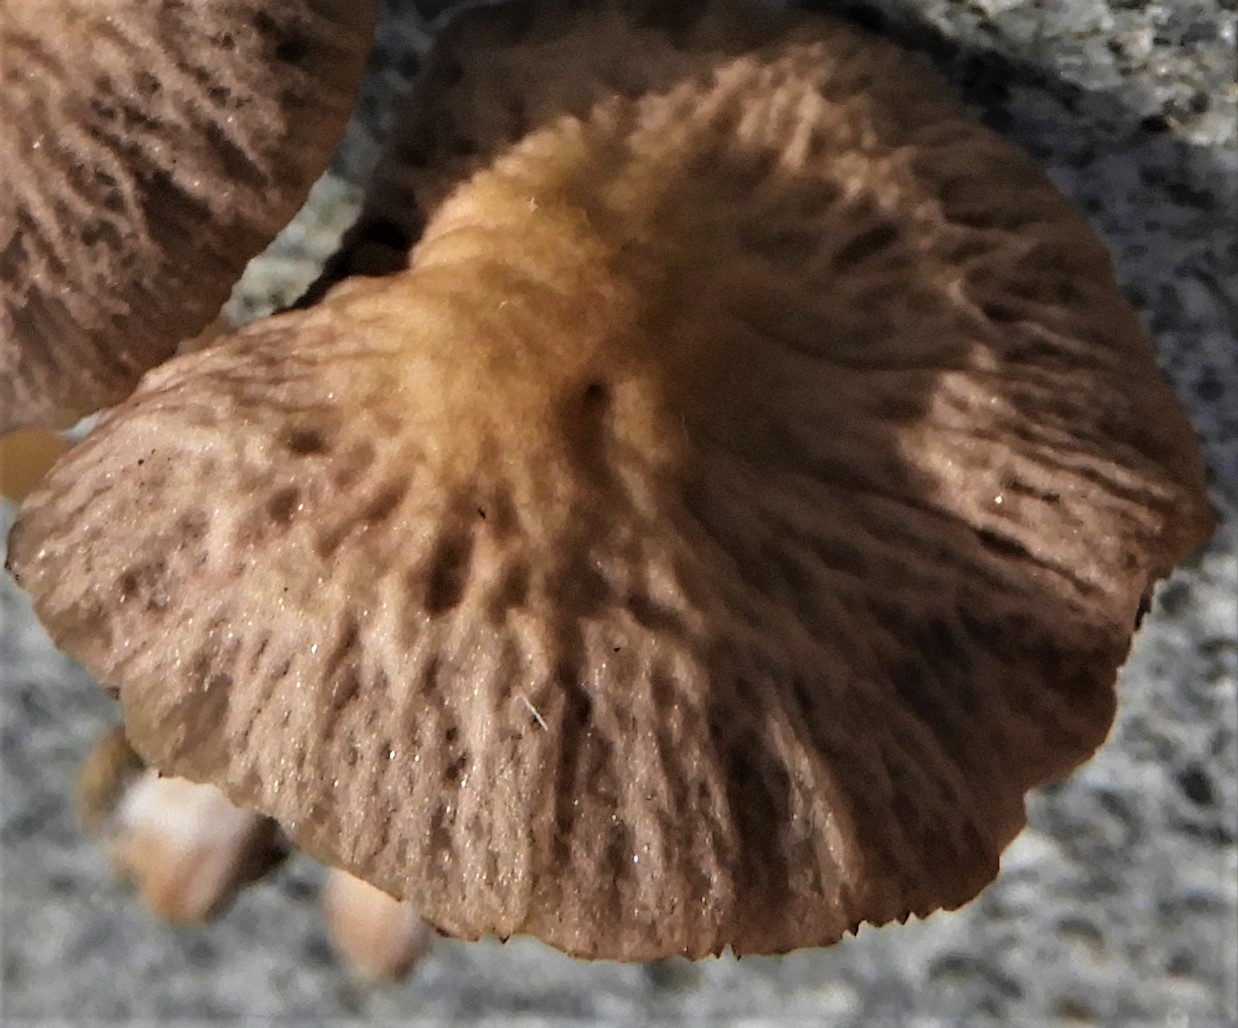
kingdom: Fungi
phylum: Basidiomycota
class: Agaricomycetes
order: Agaricales
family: Psathyrellaceae
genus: Psathyrella
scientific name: Psathyrella
